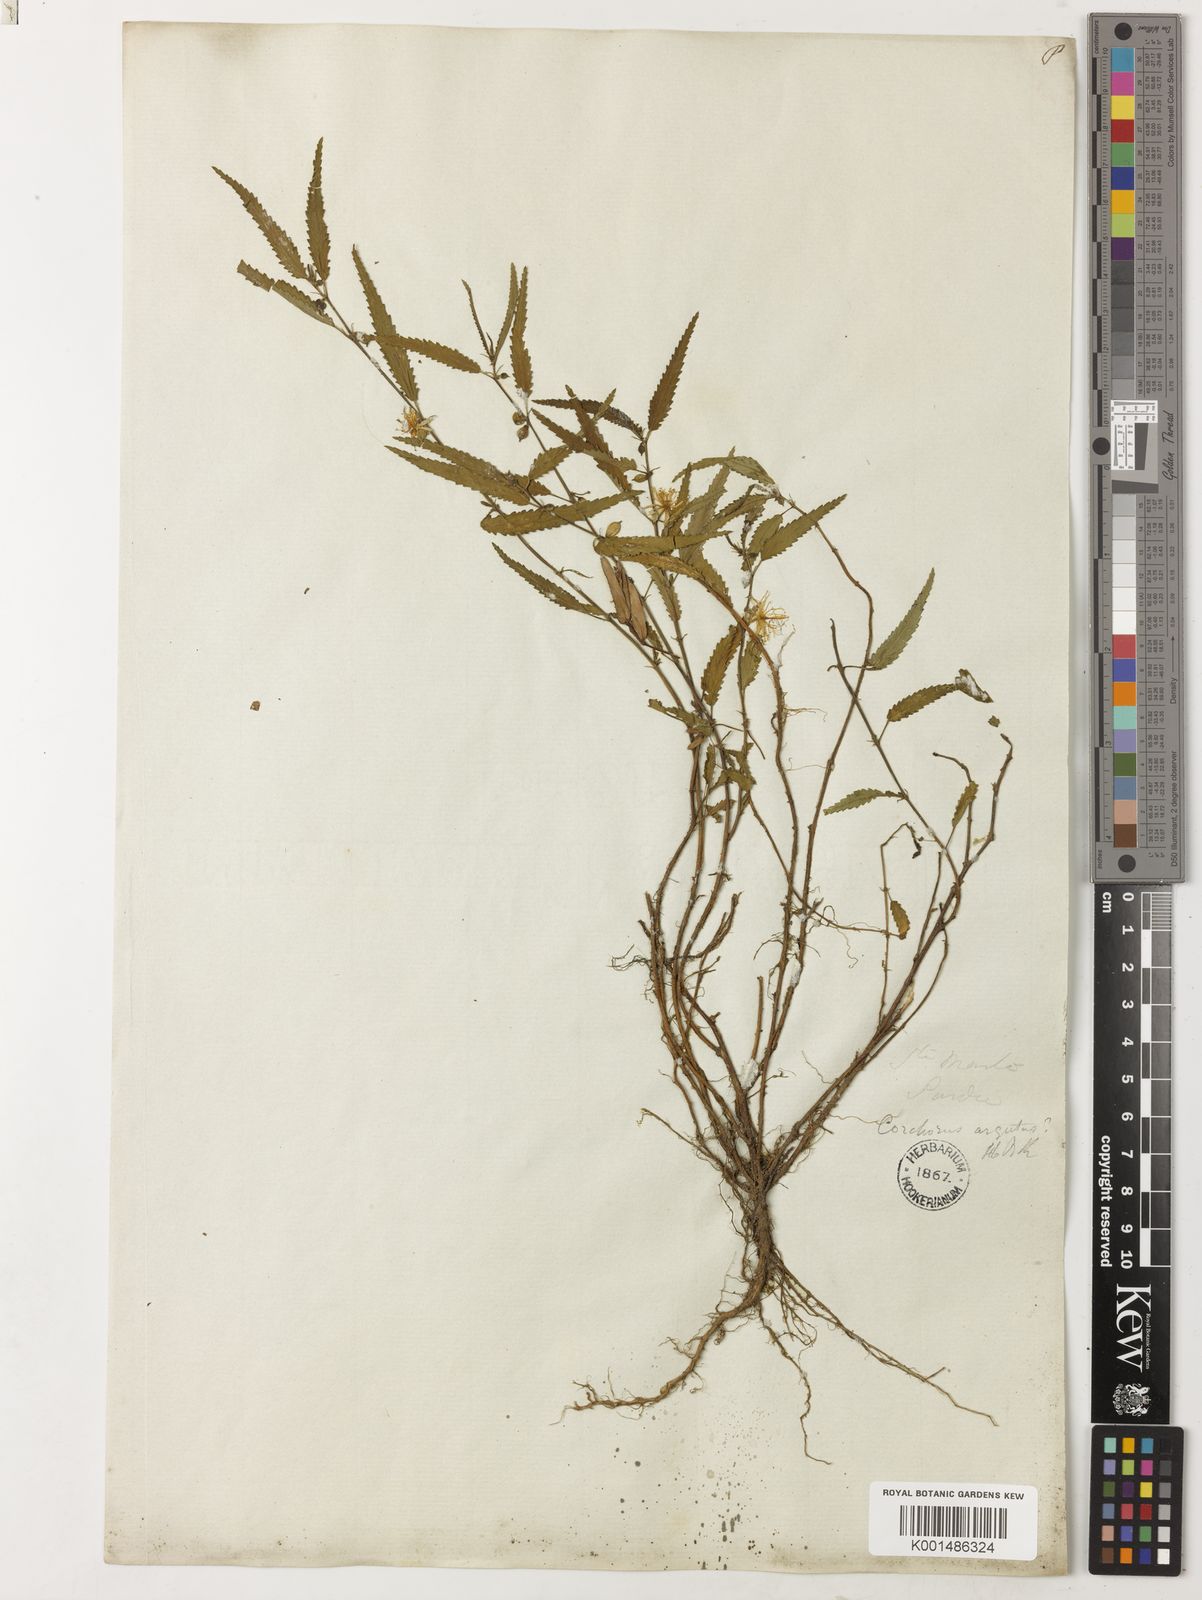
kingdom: Plantae
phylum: Tracheophyta
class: Magnoliopsida
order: Malvales
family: Malvaceae
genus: Corchorus
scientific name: Corchorus argutus
